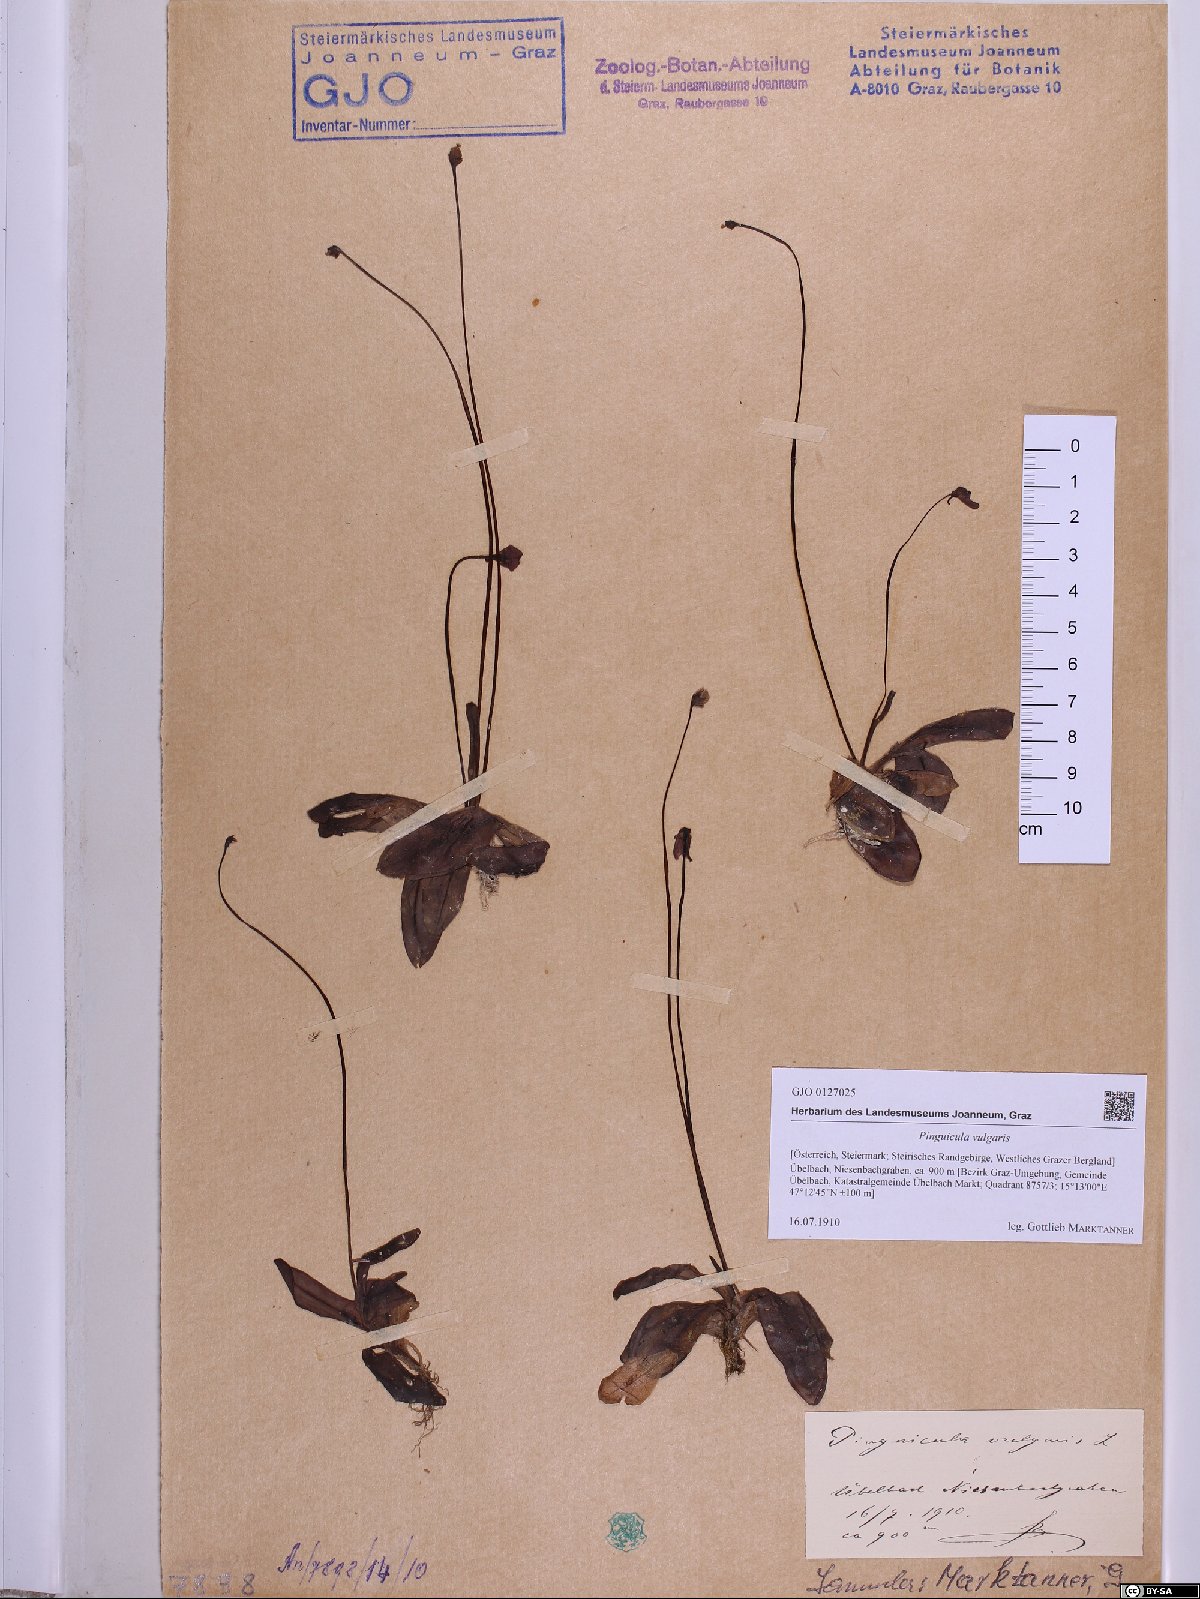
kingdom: Plantae
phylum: Tracheophyta
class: Magnoliopsida
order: Lamiales
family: Lentibulariaceae
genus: Pinguicula
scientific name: Pinguicula vulgaris
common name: Common butterwort
